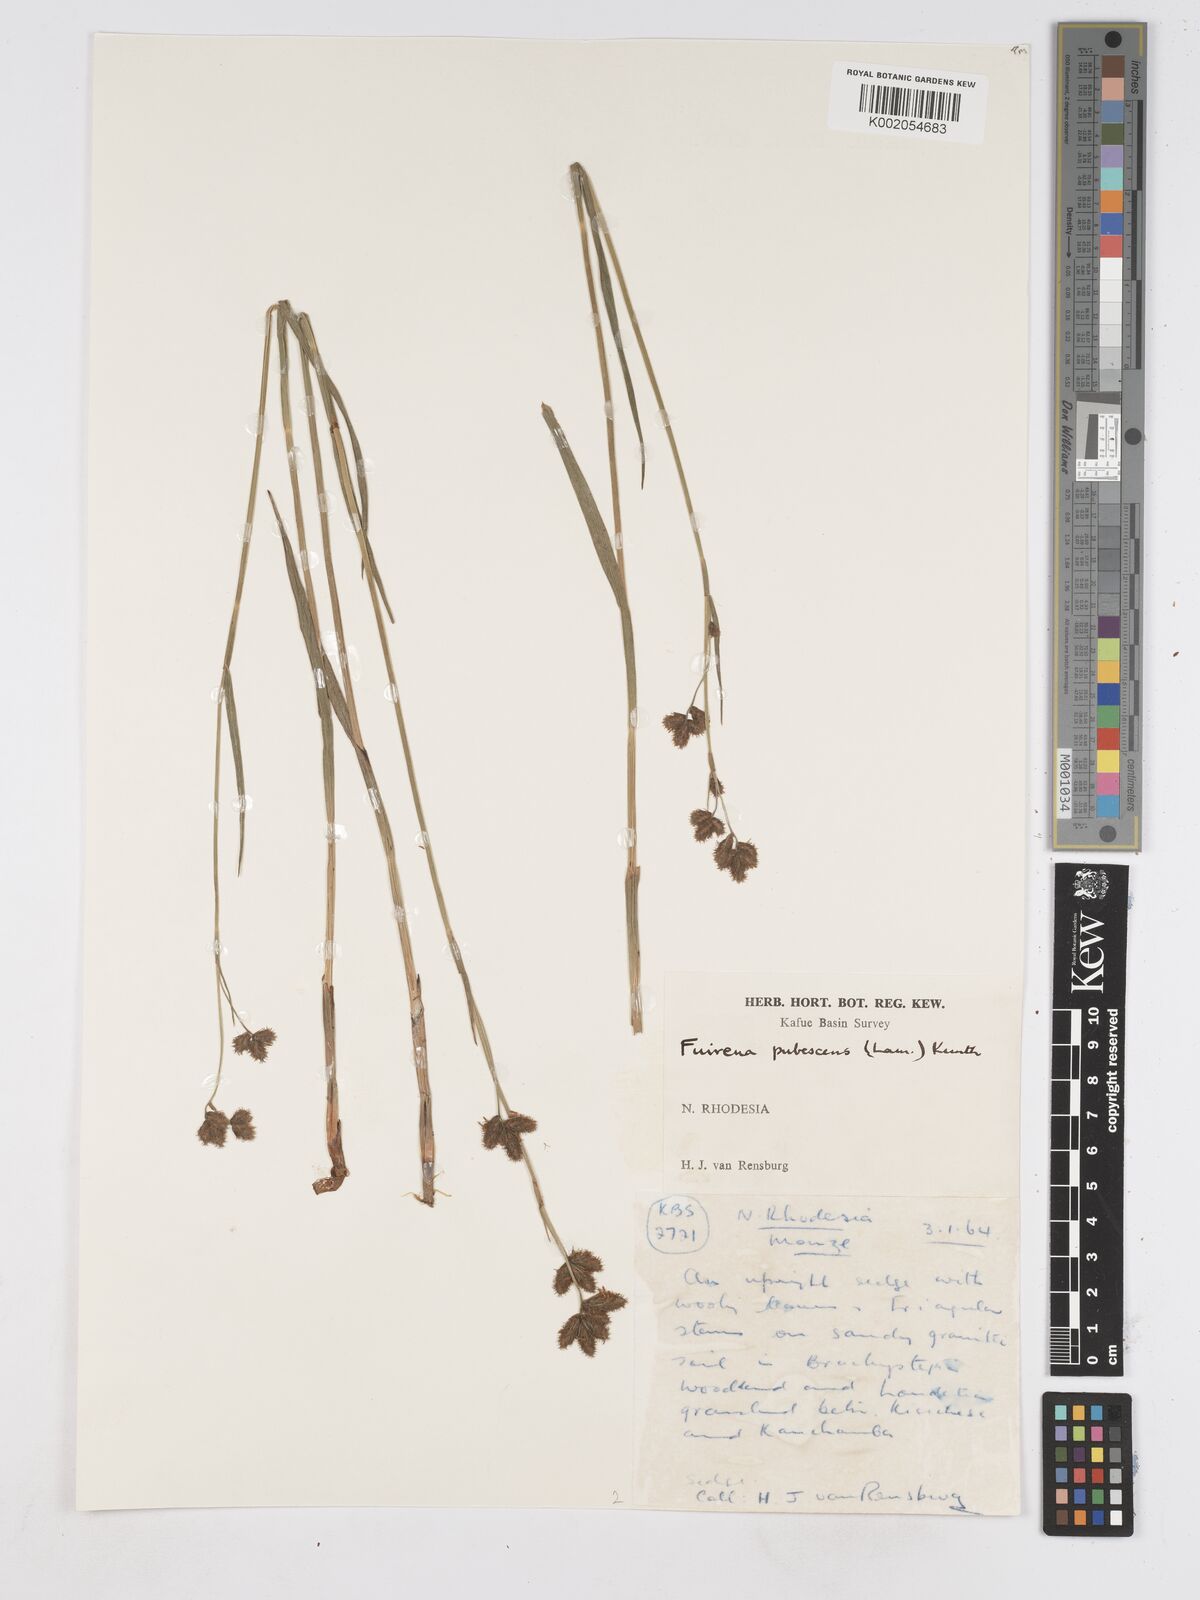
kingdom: Plantae
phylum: Tracheophyta
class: Liliopsida
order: Poales
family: Cyperaceae
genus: Fuirena
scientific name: Fuirena pachyrrhiza
